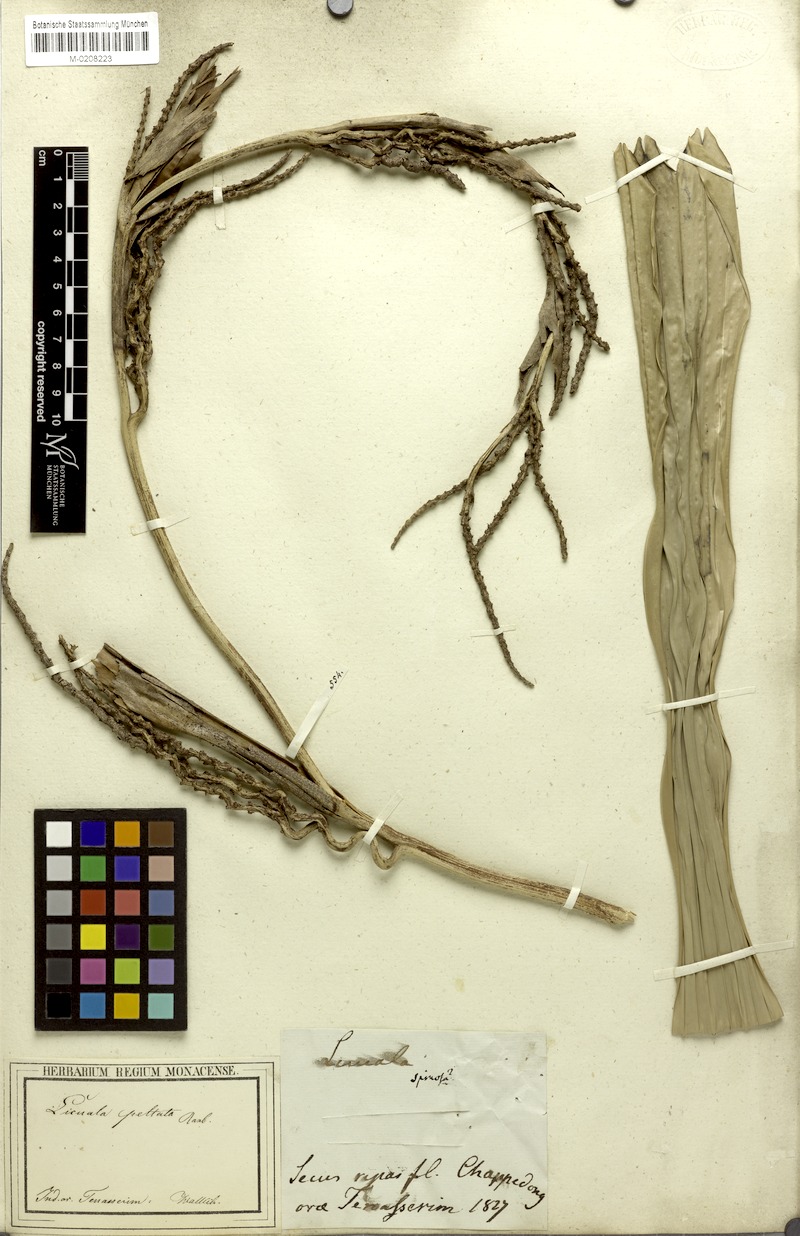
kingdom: Plantae
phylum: Tracheophyta
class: Liliopsida
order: Arecales
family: Arecaceae
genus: Licuala
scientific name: Licuala peltata
